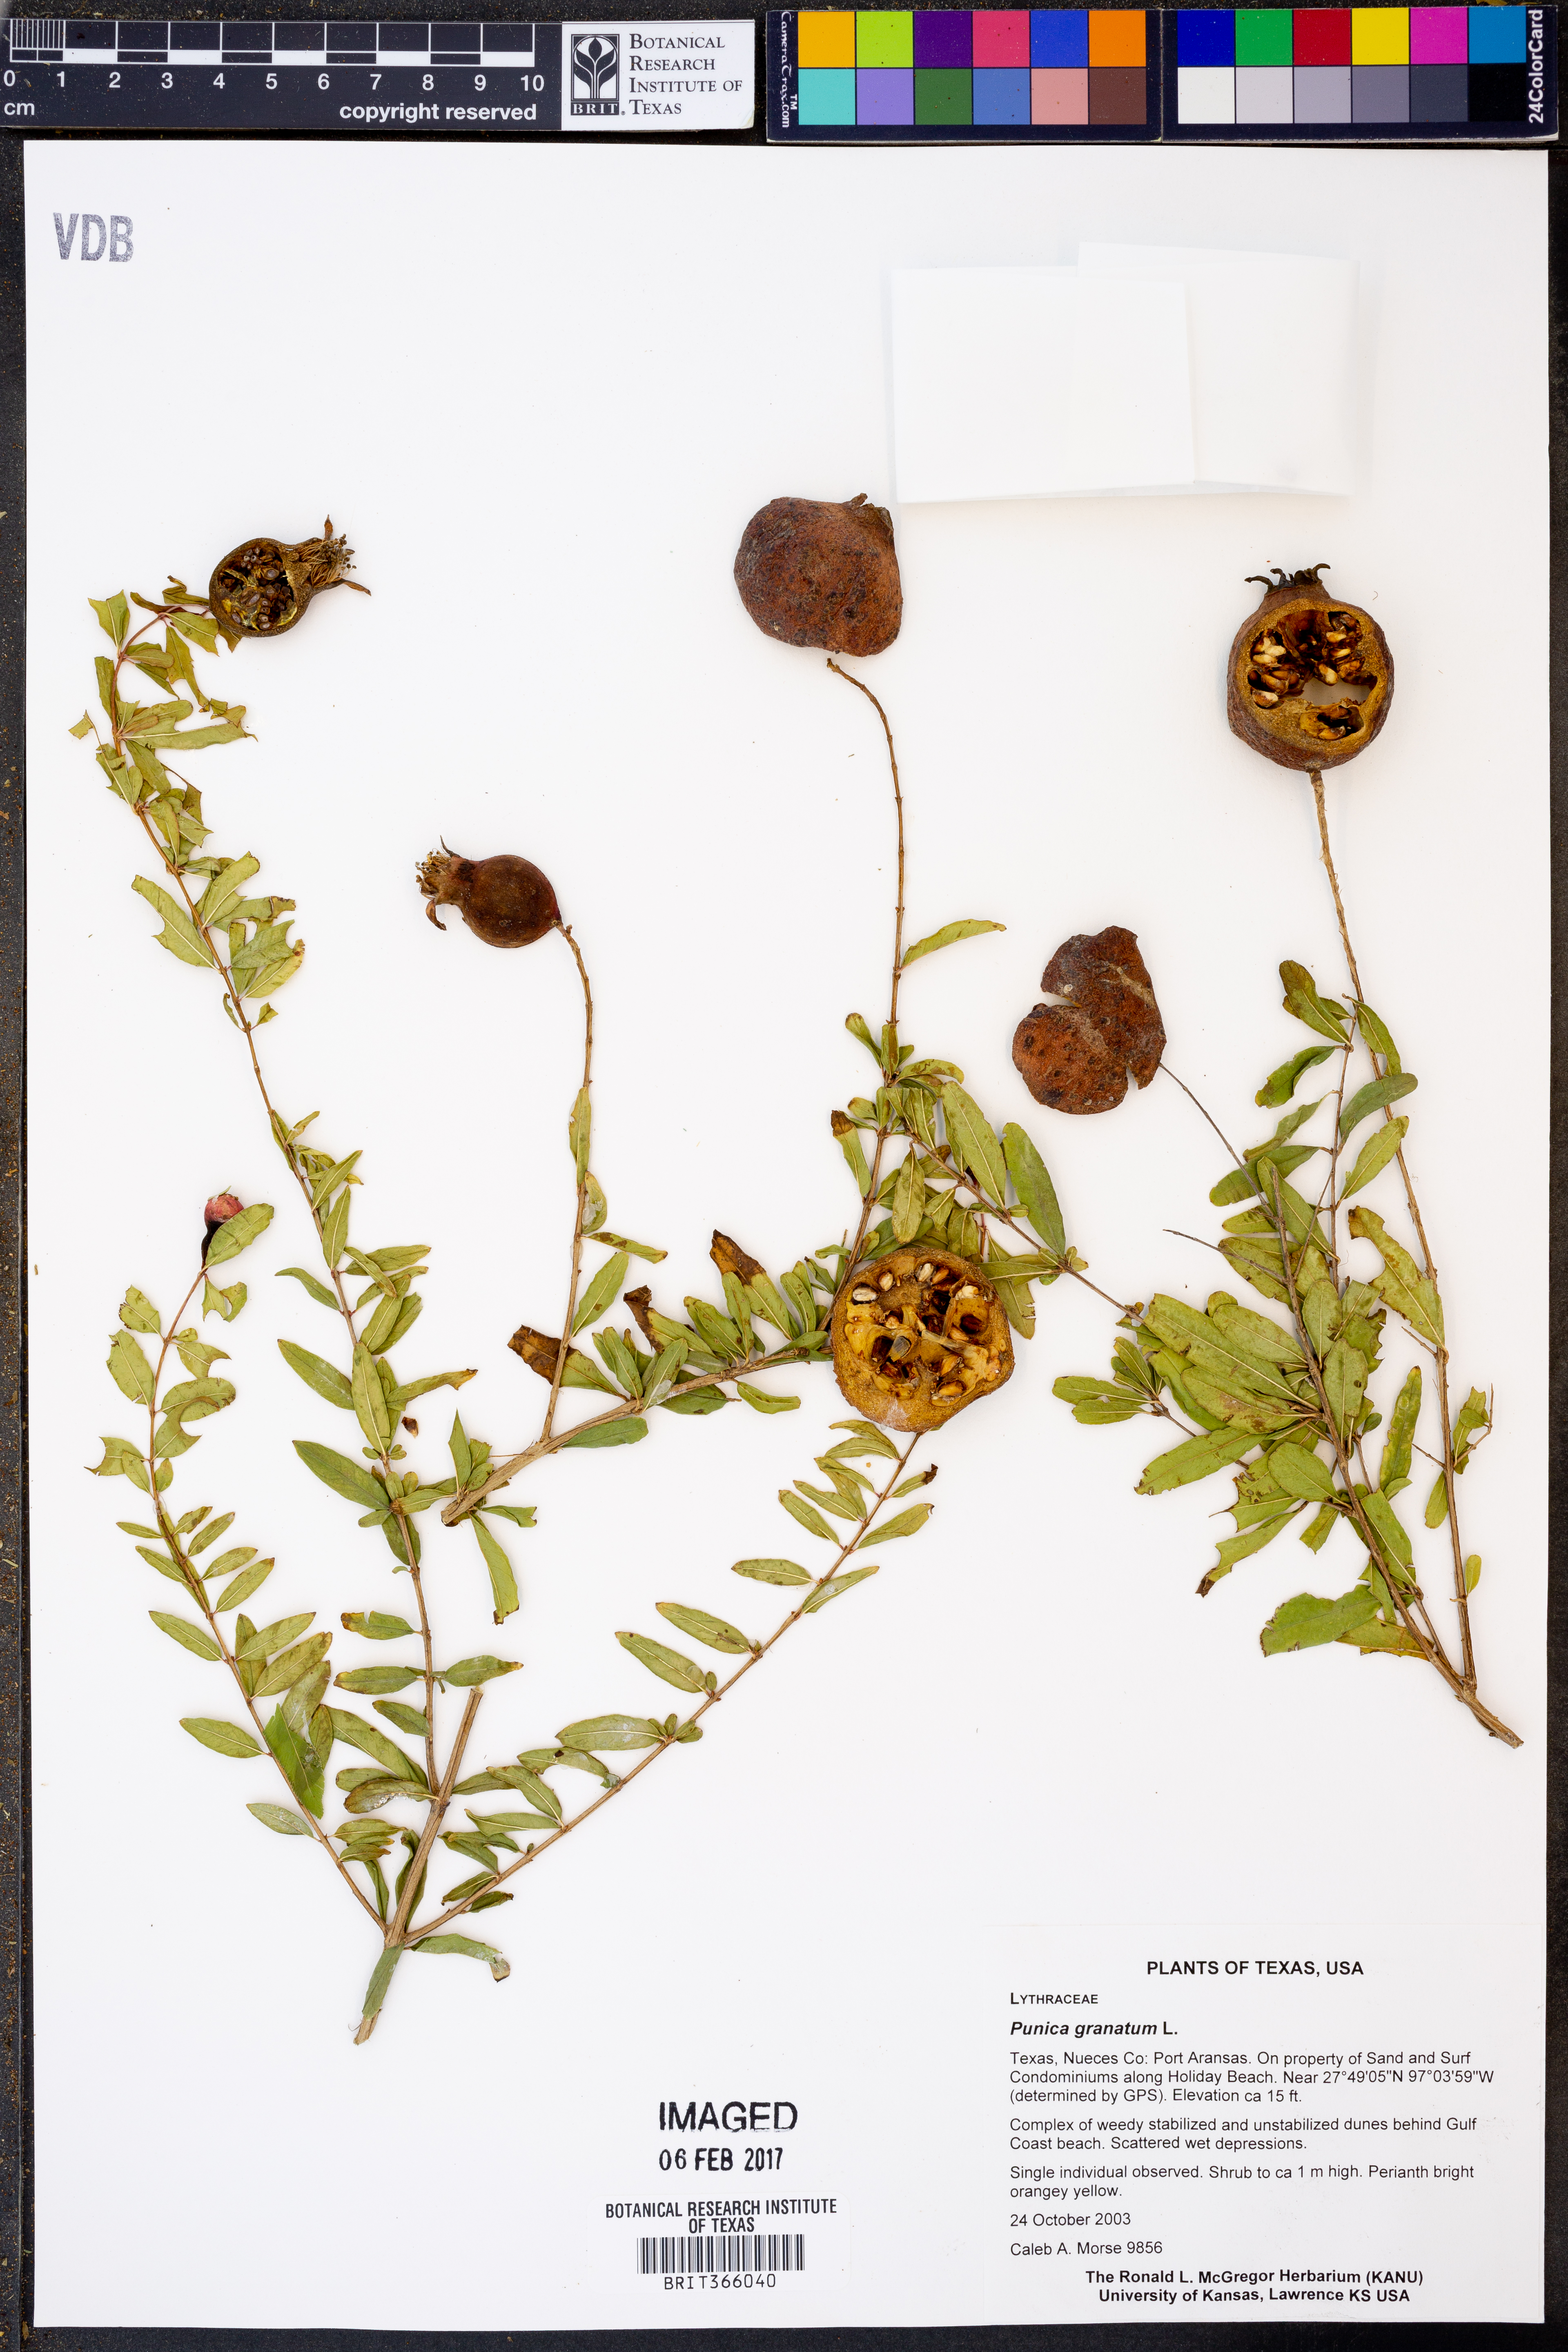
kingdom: Plantae
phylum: Tracheophyta
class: Magnoliopsida
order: Myrtales
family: Lythraceae
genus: Punica
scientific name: Punica granatum
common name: Pomegranate
